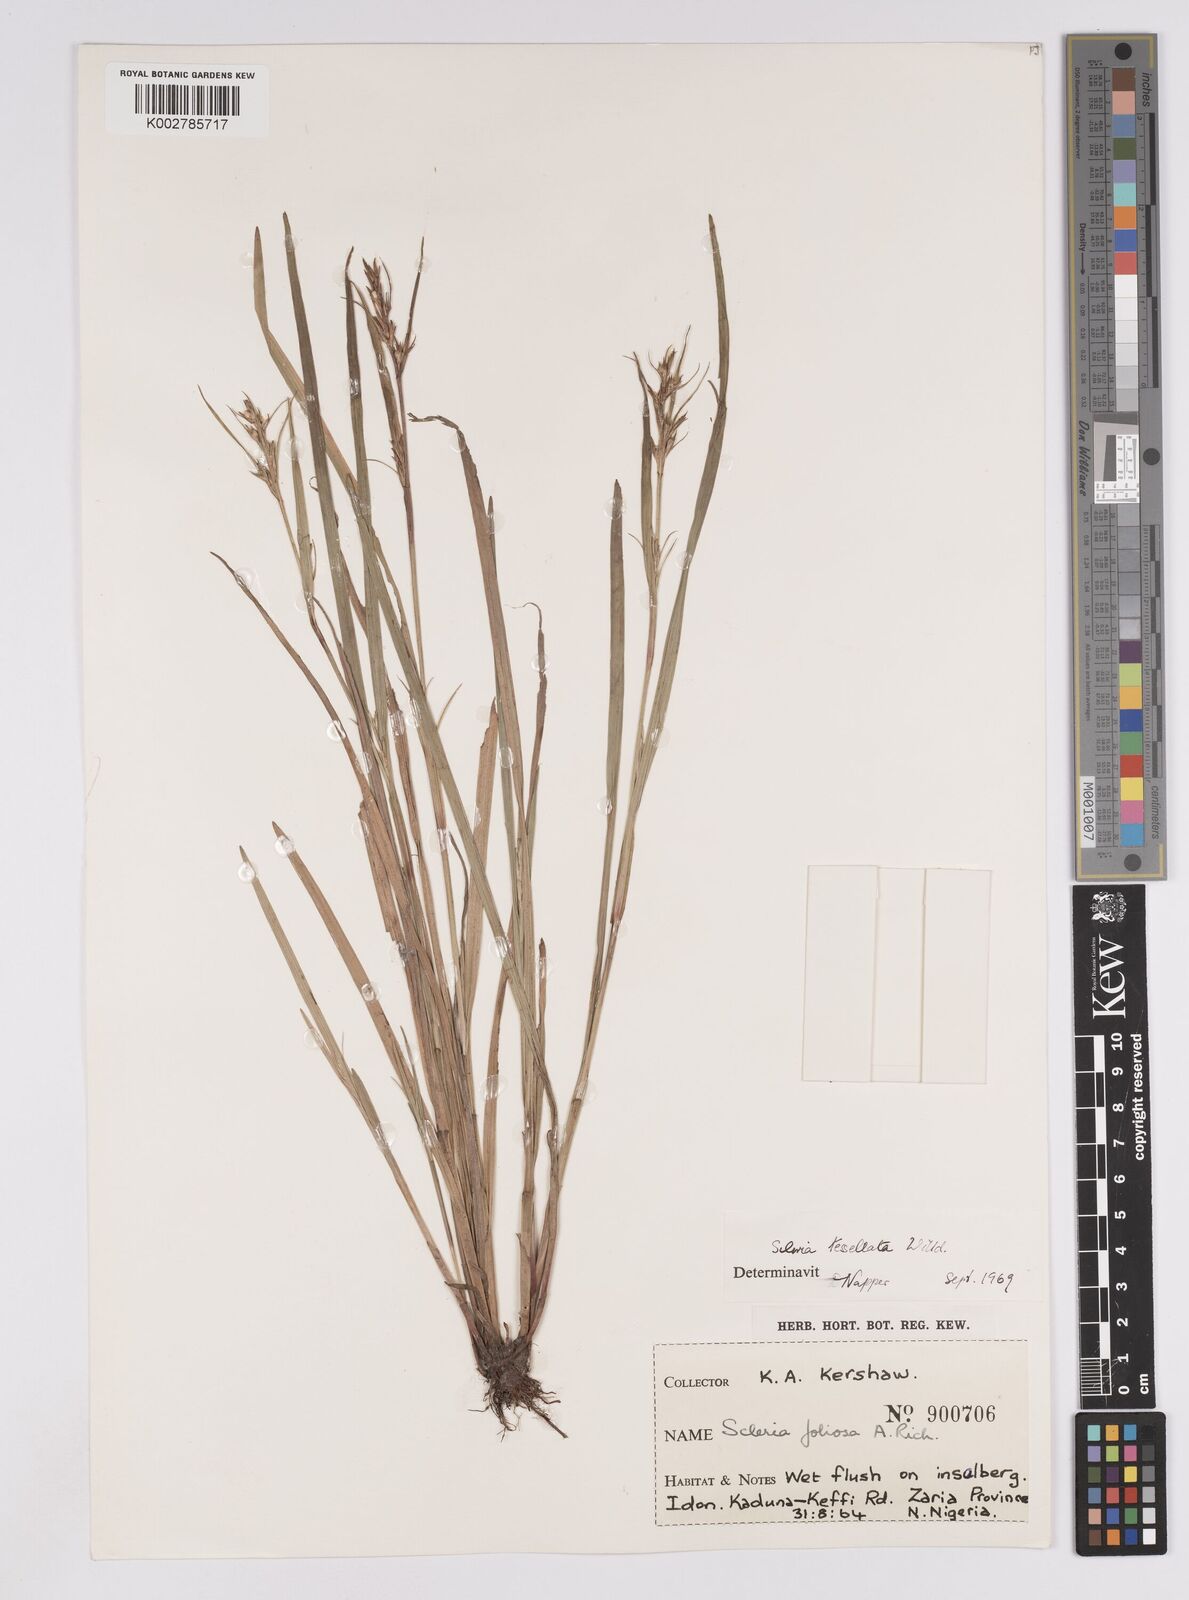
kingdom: Plantae
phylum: Tracheophyta
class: Liliopsida
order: Poales
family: Cyperaceae
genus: Scleria
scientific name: Scleria tessellata
